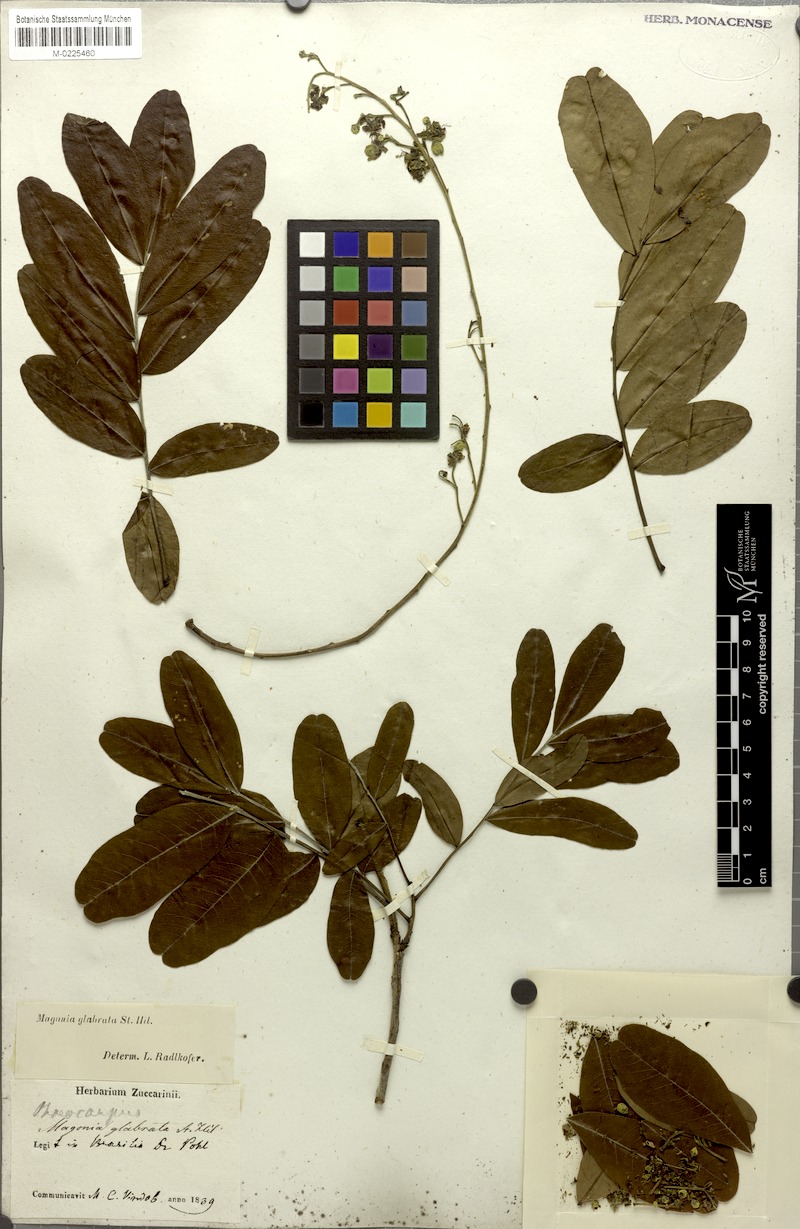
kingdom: Plantae
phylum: Tracheophyta
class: Magnoliopsida
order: Sapindales
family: Sapindaceae
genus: Magonia
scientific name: Magonia pubescens
